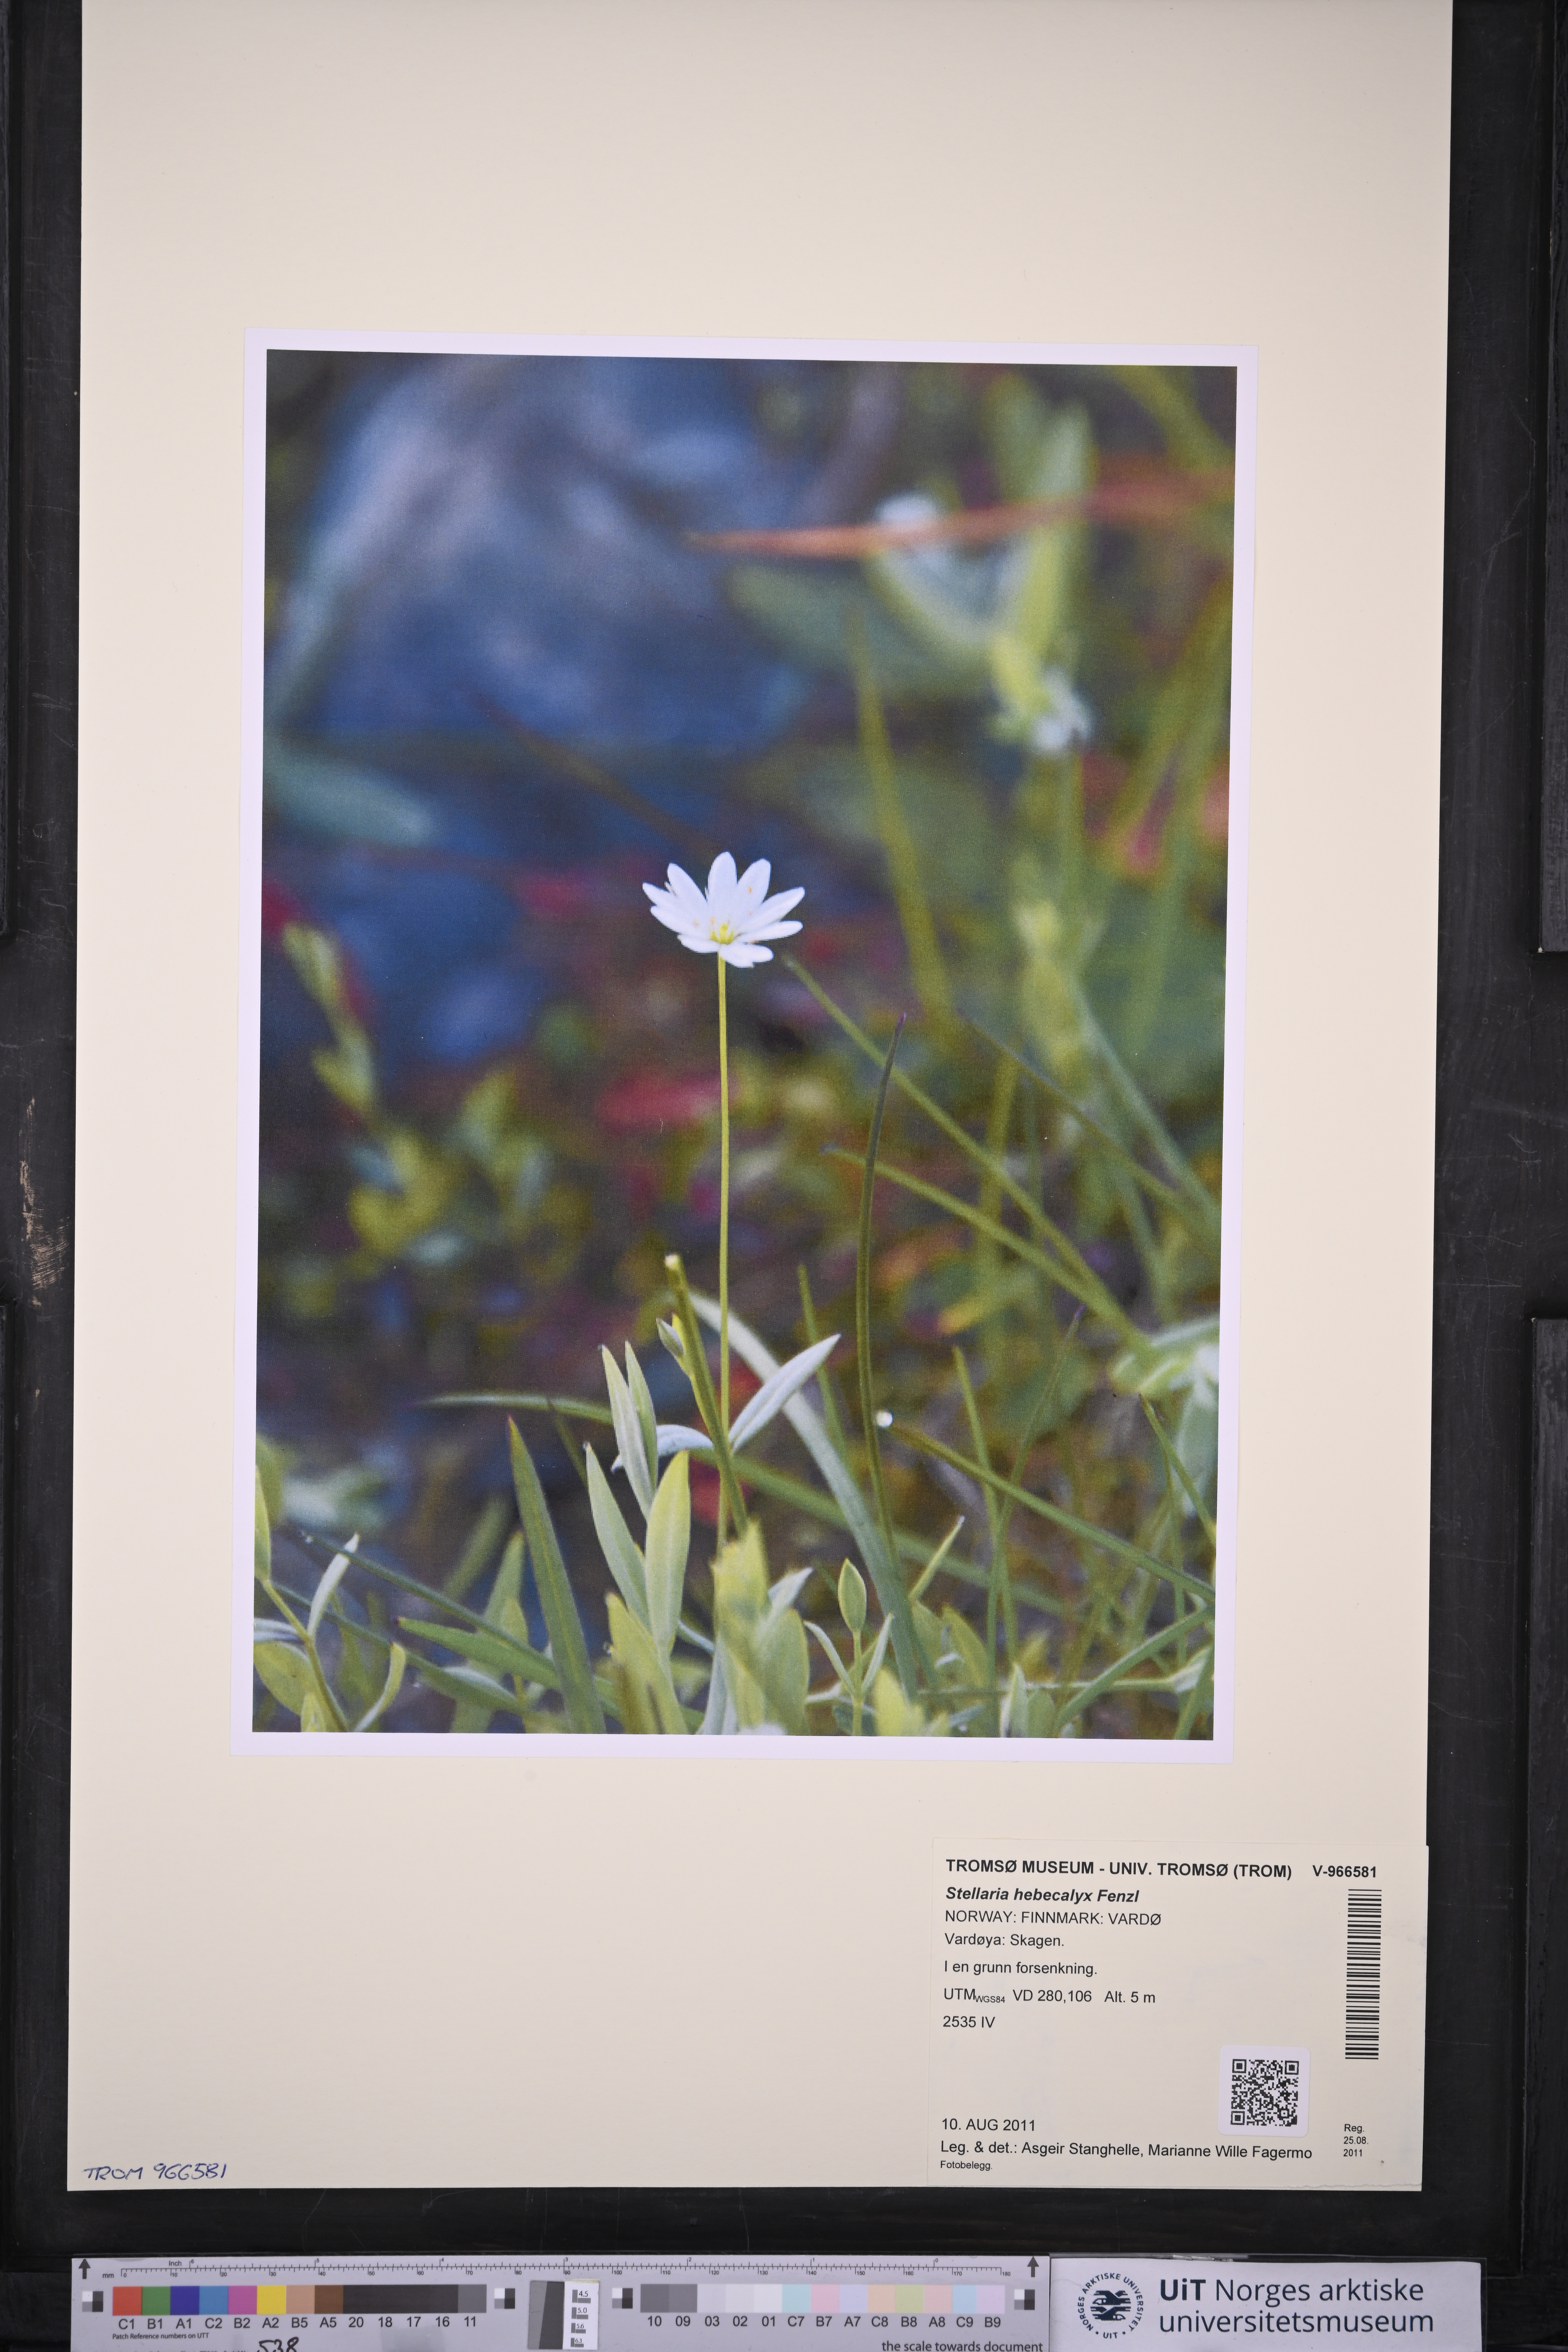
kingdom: Plantae
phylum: Tracheophyta
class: Magnoliopsida
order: Caryophyllales
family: Caryophyllaceae
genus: Stellaria
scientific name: Stellaria hebecalyx
